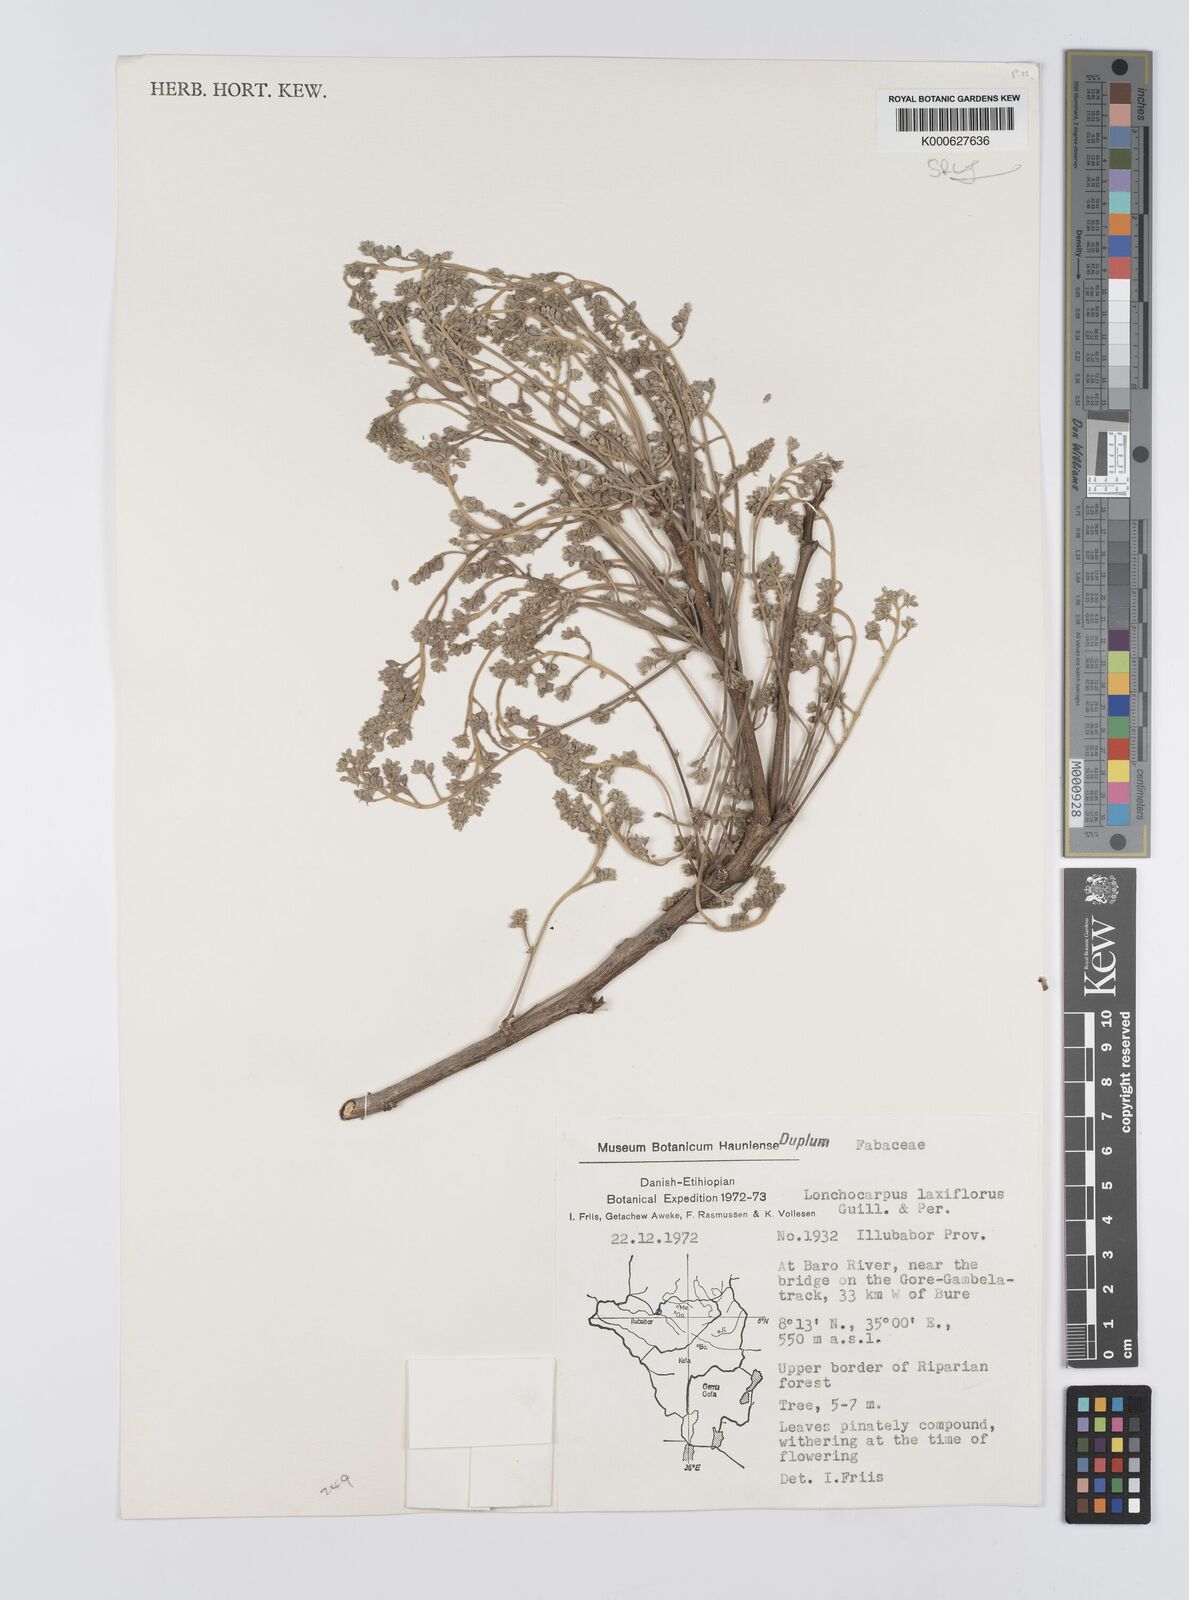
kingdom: Plantae
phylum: Tracheophyta
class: Magnoliopsida
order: Fabales
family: Fabaceae
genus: Philenoptera
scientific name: Philenoptera laxiflora
